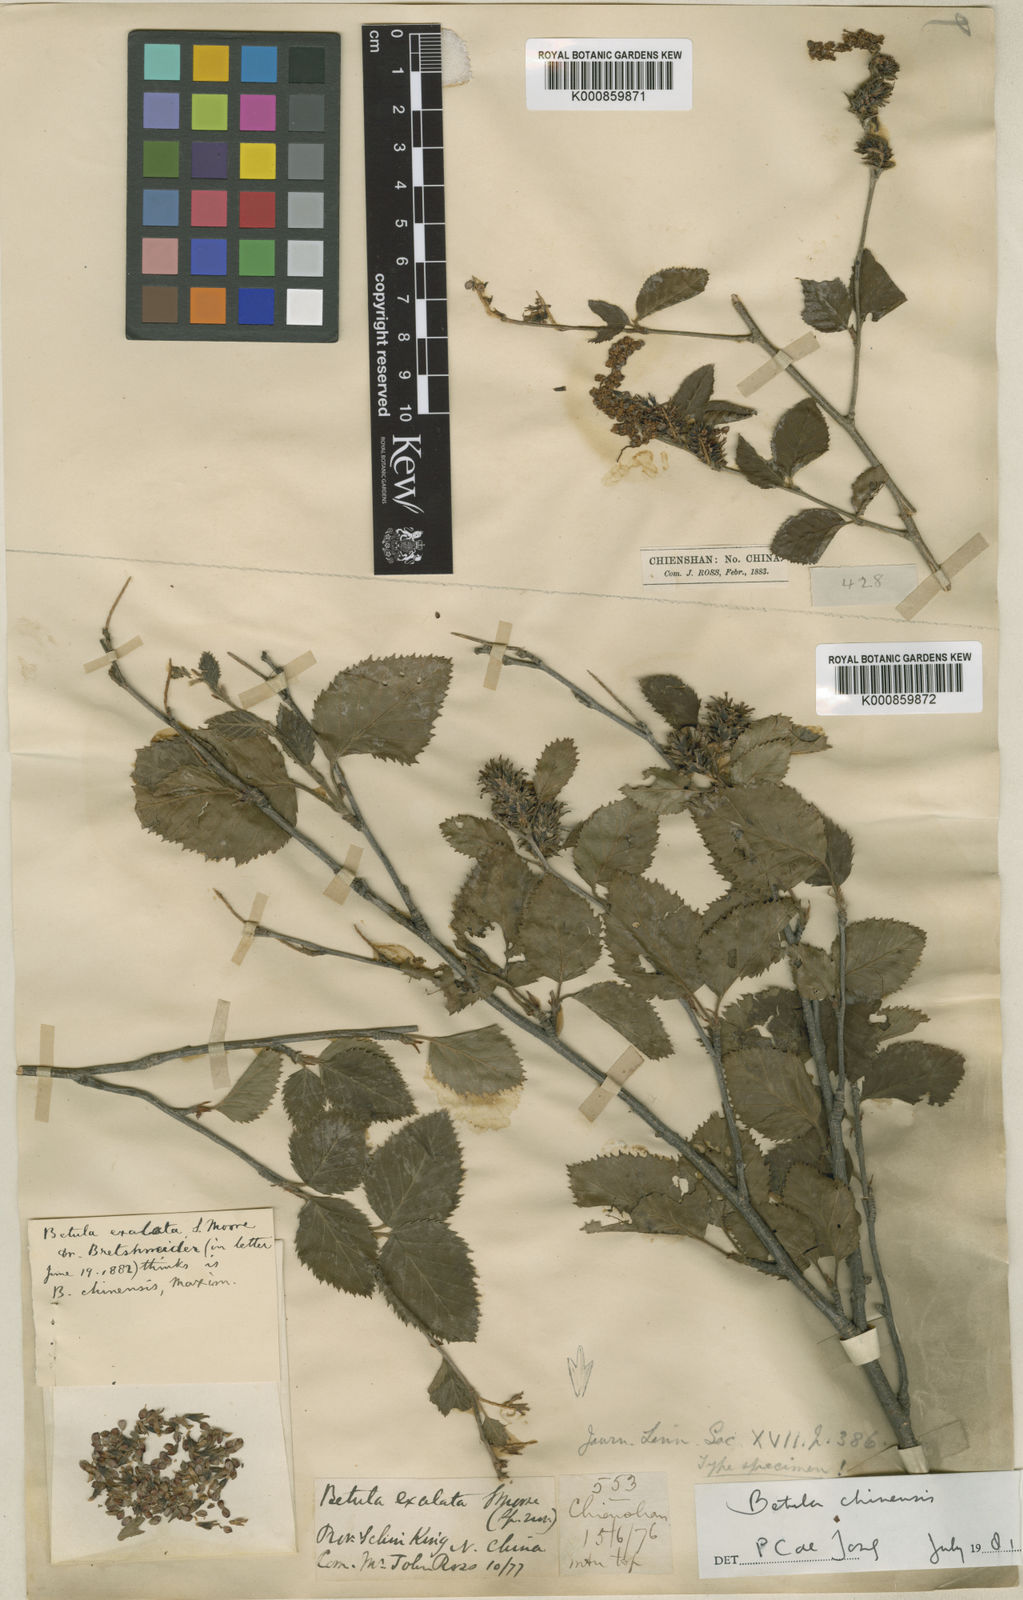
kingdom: Plantae
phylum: Tracheophyta
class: Magnoliopsida
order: Fagales
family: Betulaceae
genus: Betula
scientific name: Betula chinensis
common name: China birch
